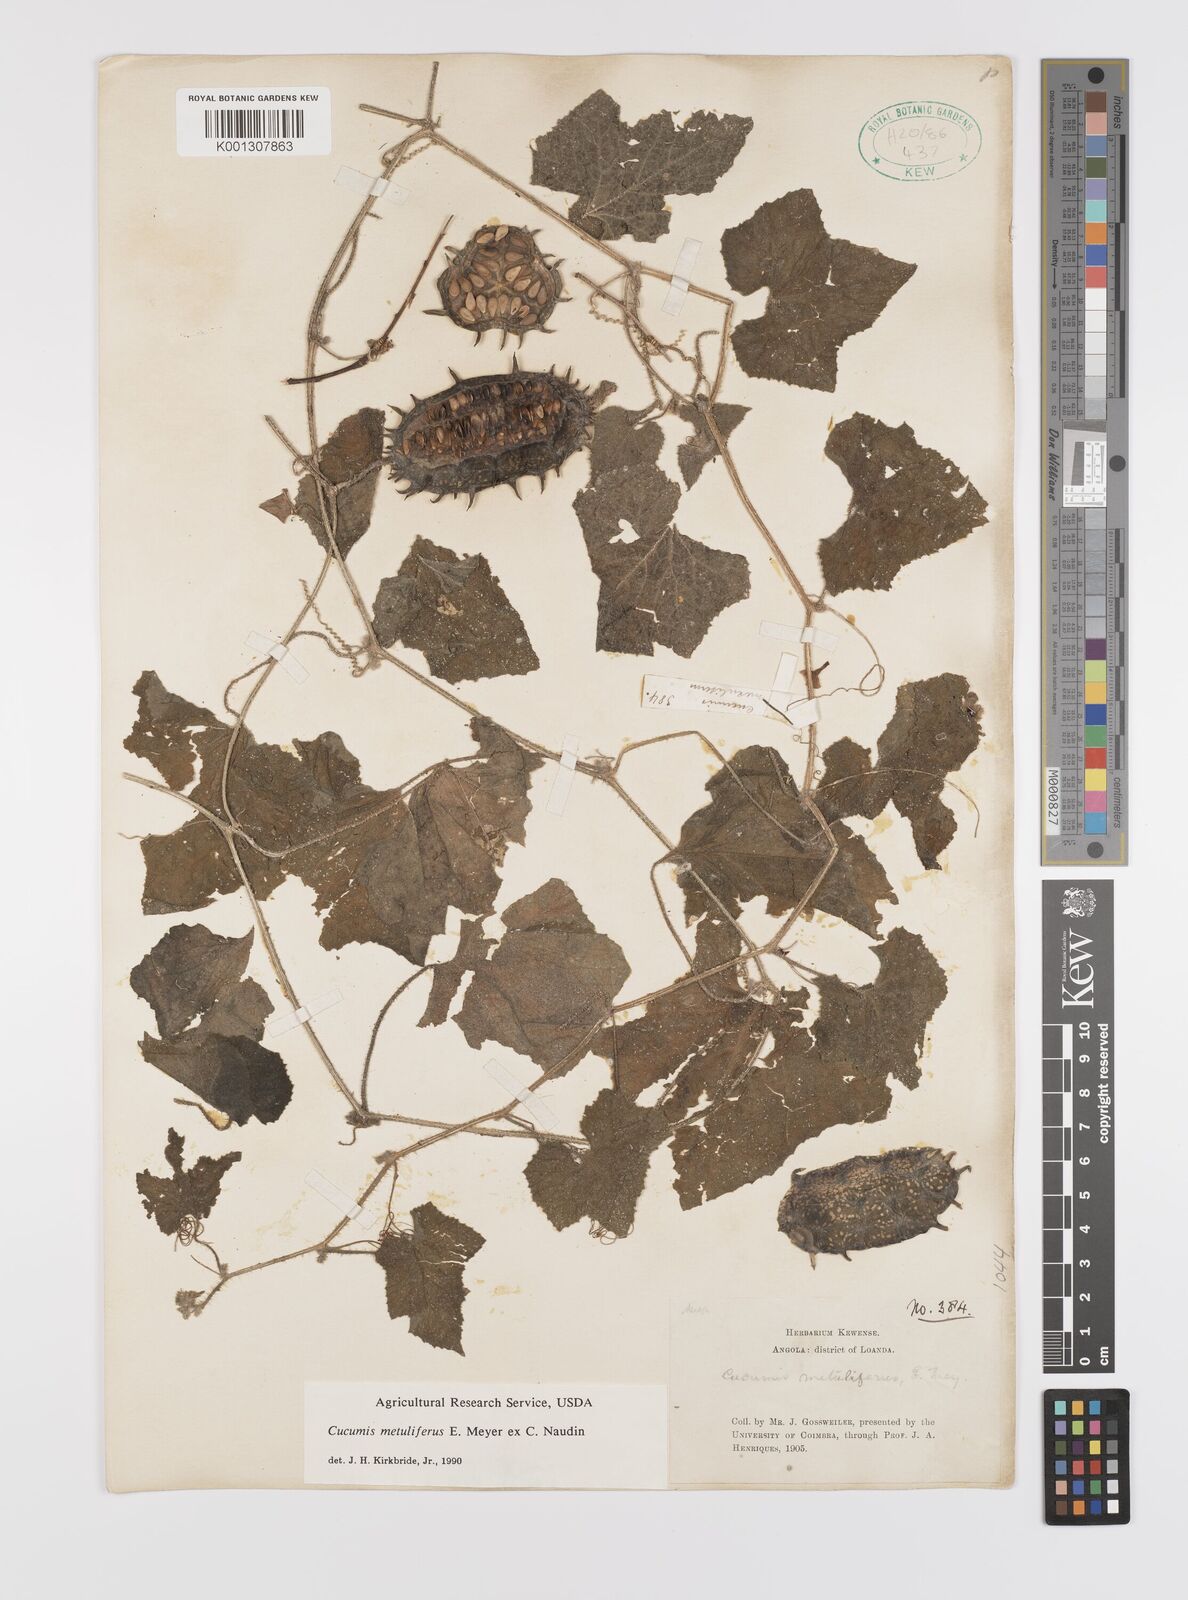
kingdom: Plantae
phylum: Tracheophyta
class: Magnoliopsida
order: Cucurbitales
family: Cucurbitaceae
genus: Cucumis
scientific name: Cucumis metuliferus
